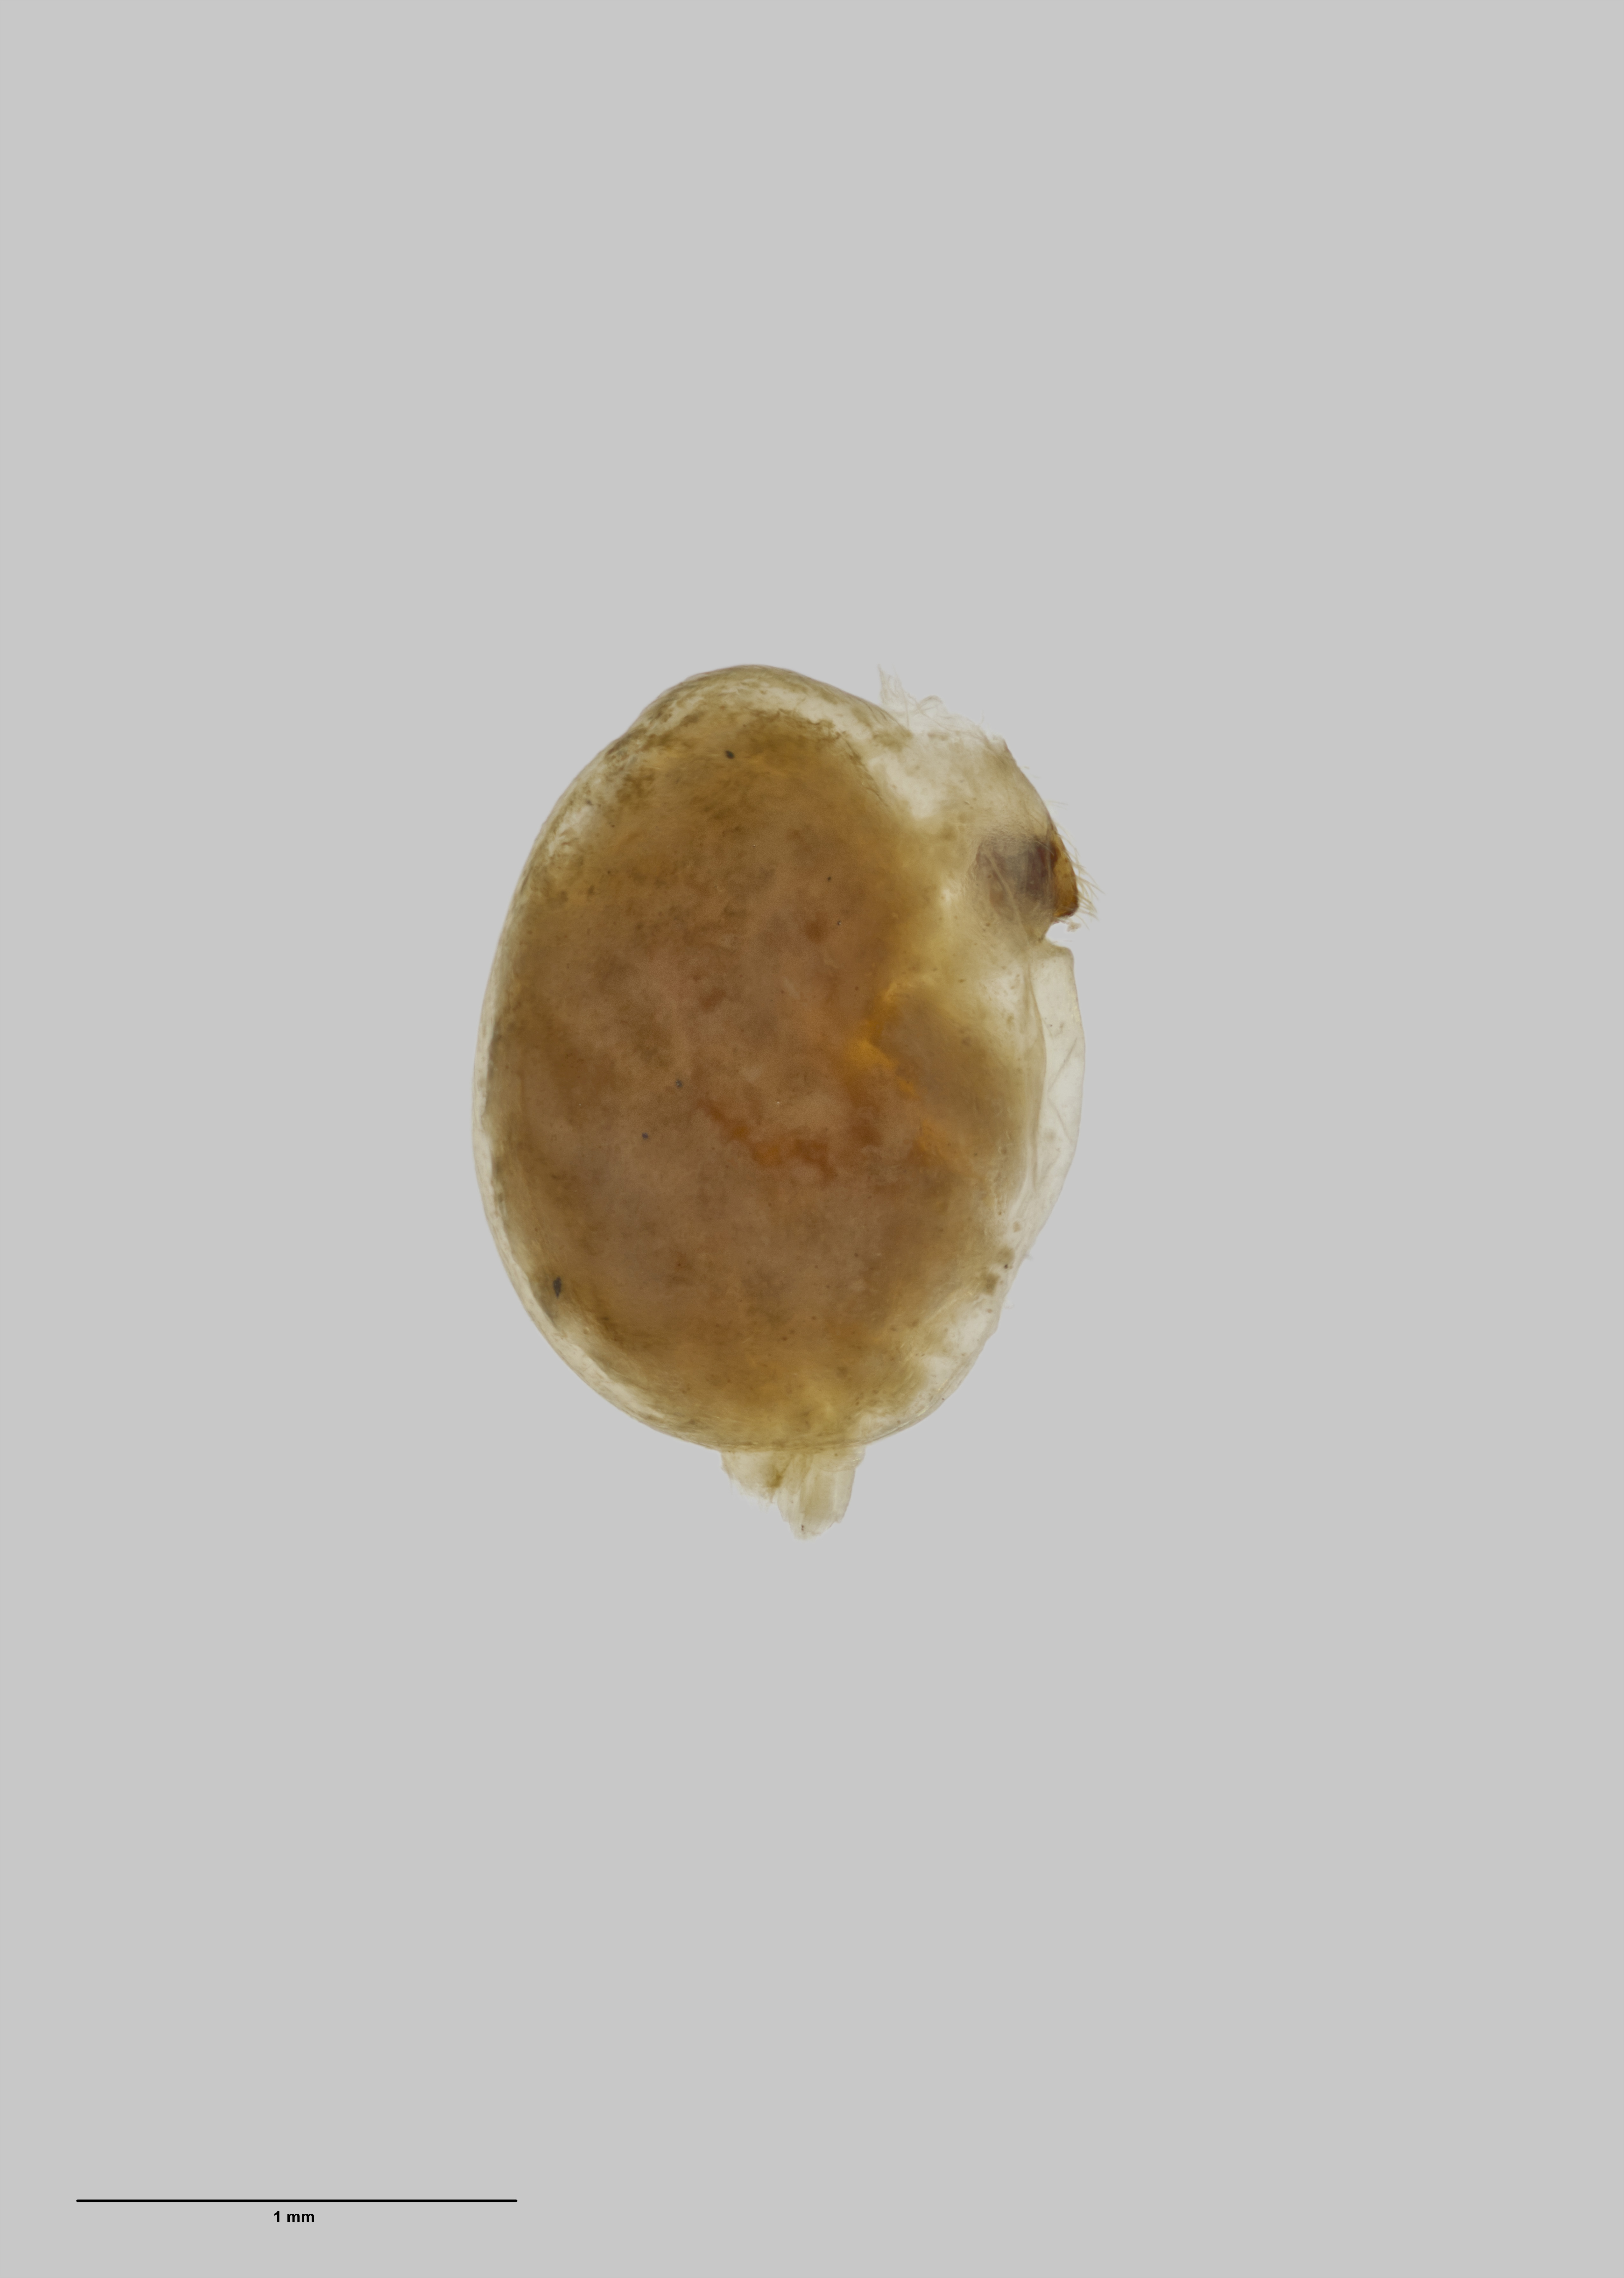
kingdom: Animalia
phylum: Arthropoda
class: Arachnida
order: Araneae
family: Amaurobiidae
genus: Muritaia
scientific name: Muritaia longispinata
